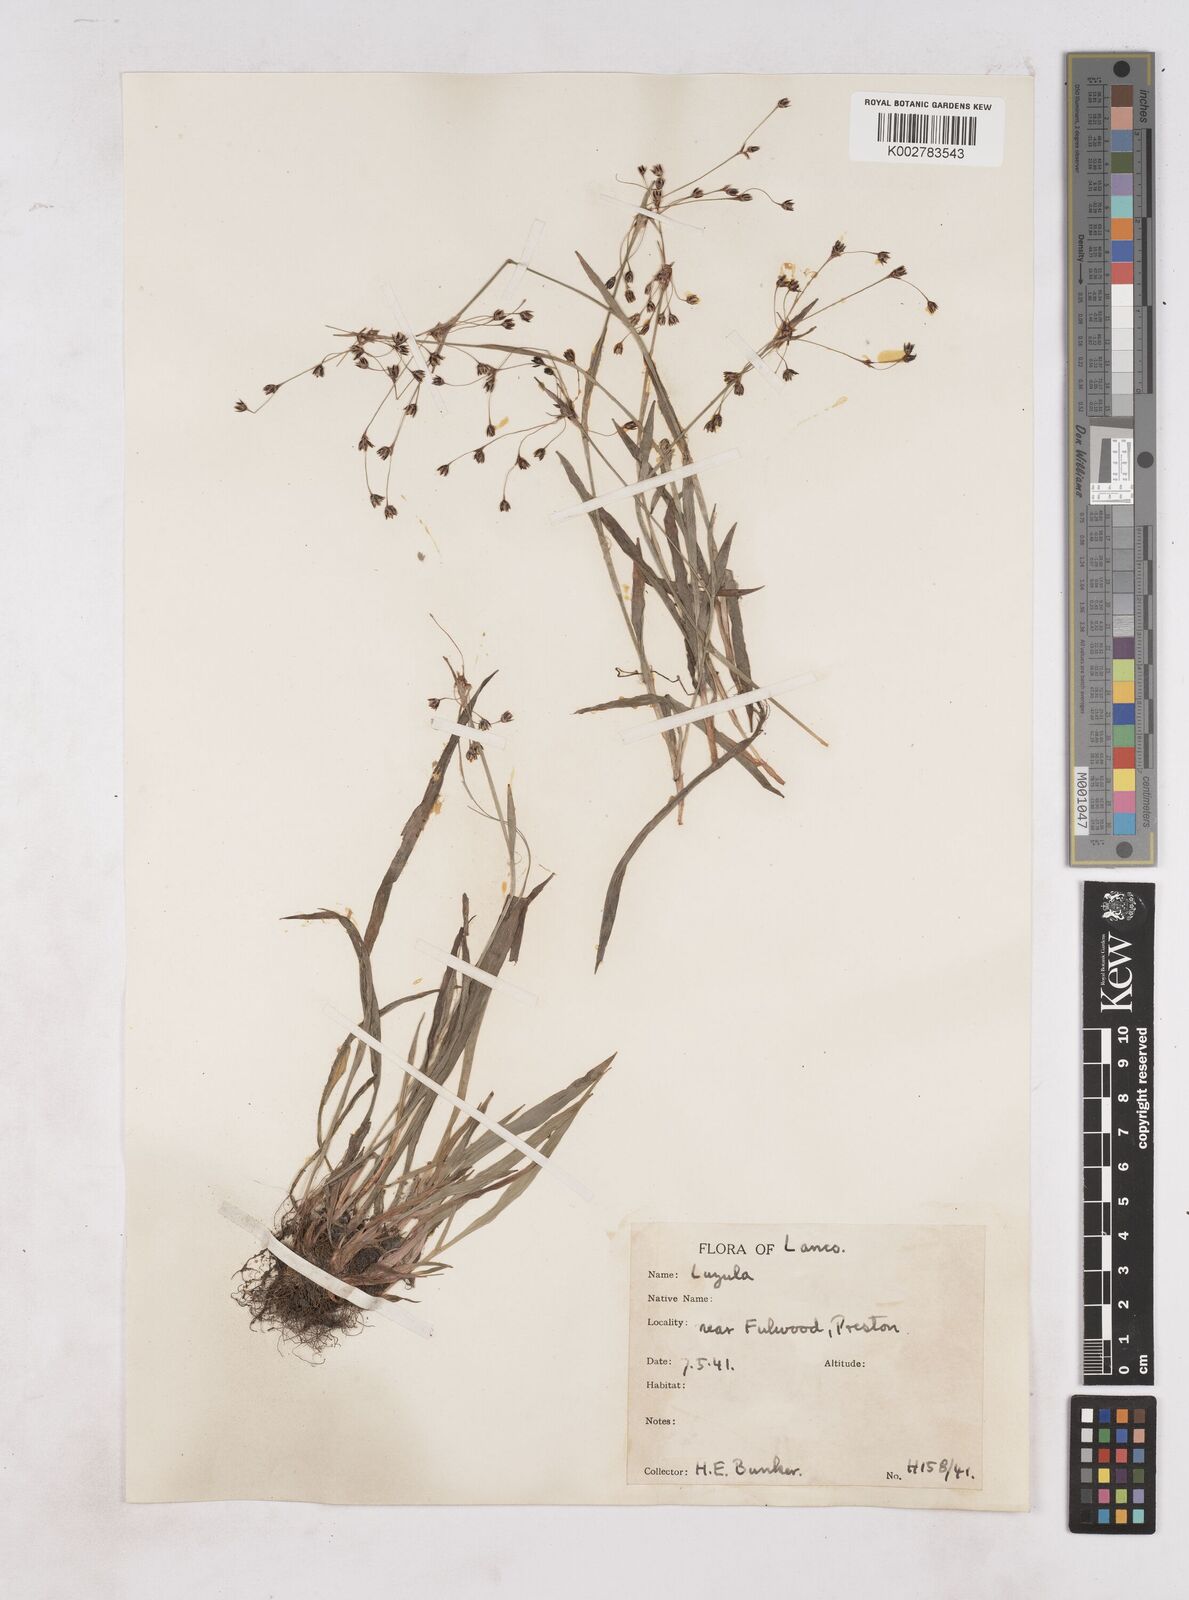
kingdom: Plantae
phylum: Tracheophyta
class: Liliopsida
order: Poales
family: Juncaceae
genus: Luzula
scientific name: Luzula
